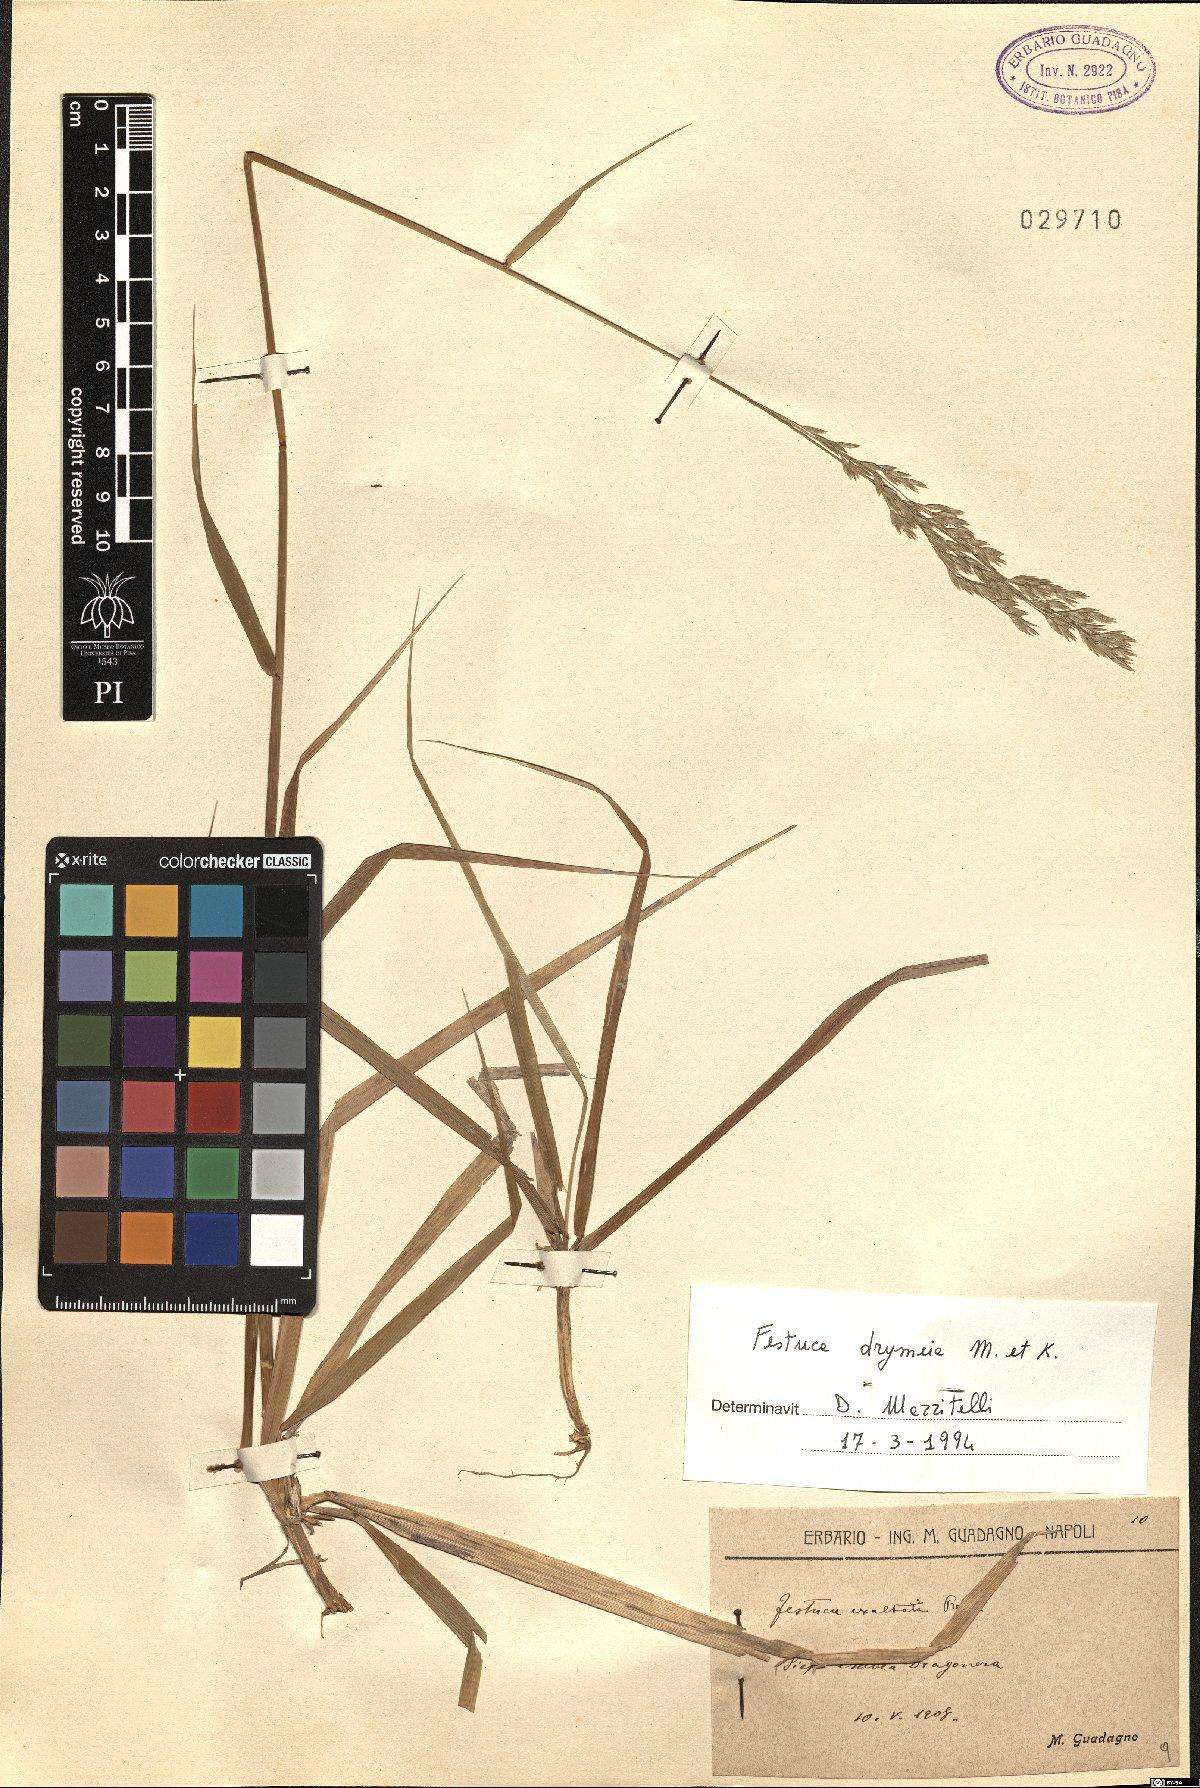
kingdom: Plantae
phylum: Tracheophyta
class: Liliopsida
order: Poales
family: Poaceae
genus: Festuca
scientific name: Festuca drymeja
